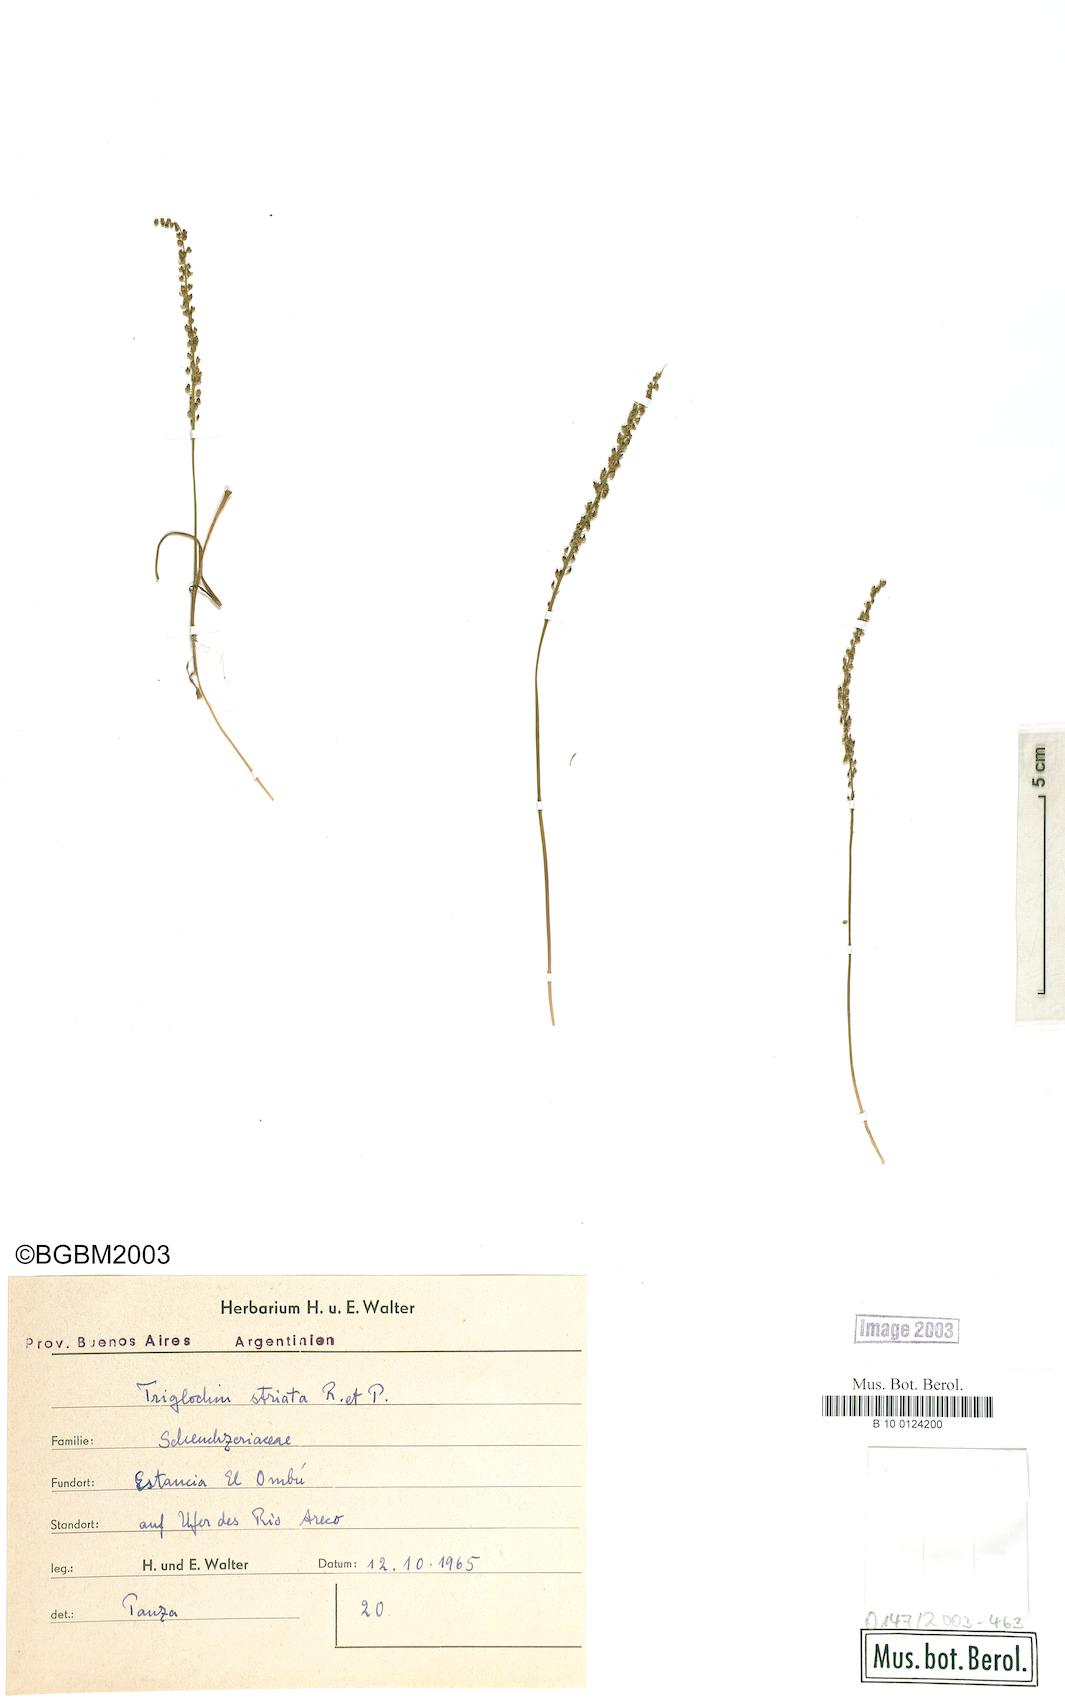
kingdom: Plantae
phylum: Tracheophyta
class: Liliopsida
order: Alismatales
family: Juncaginaceae
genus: Triglochin
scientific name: Triglochin striata
